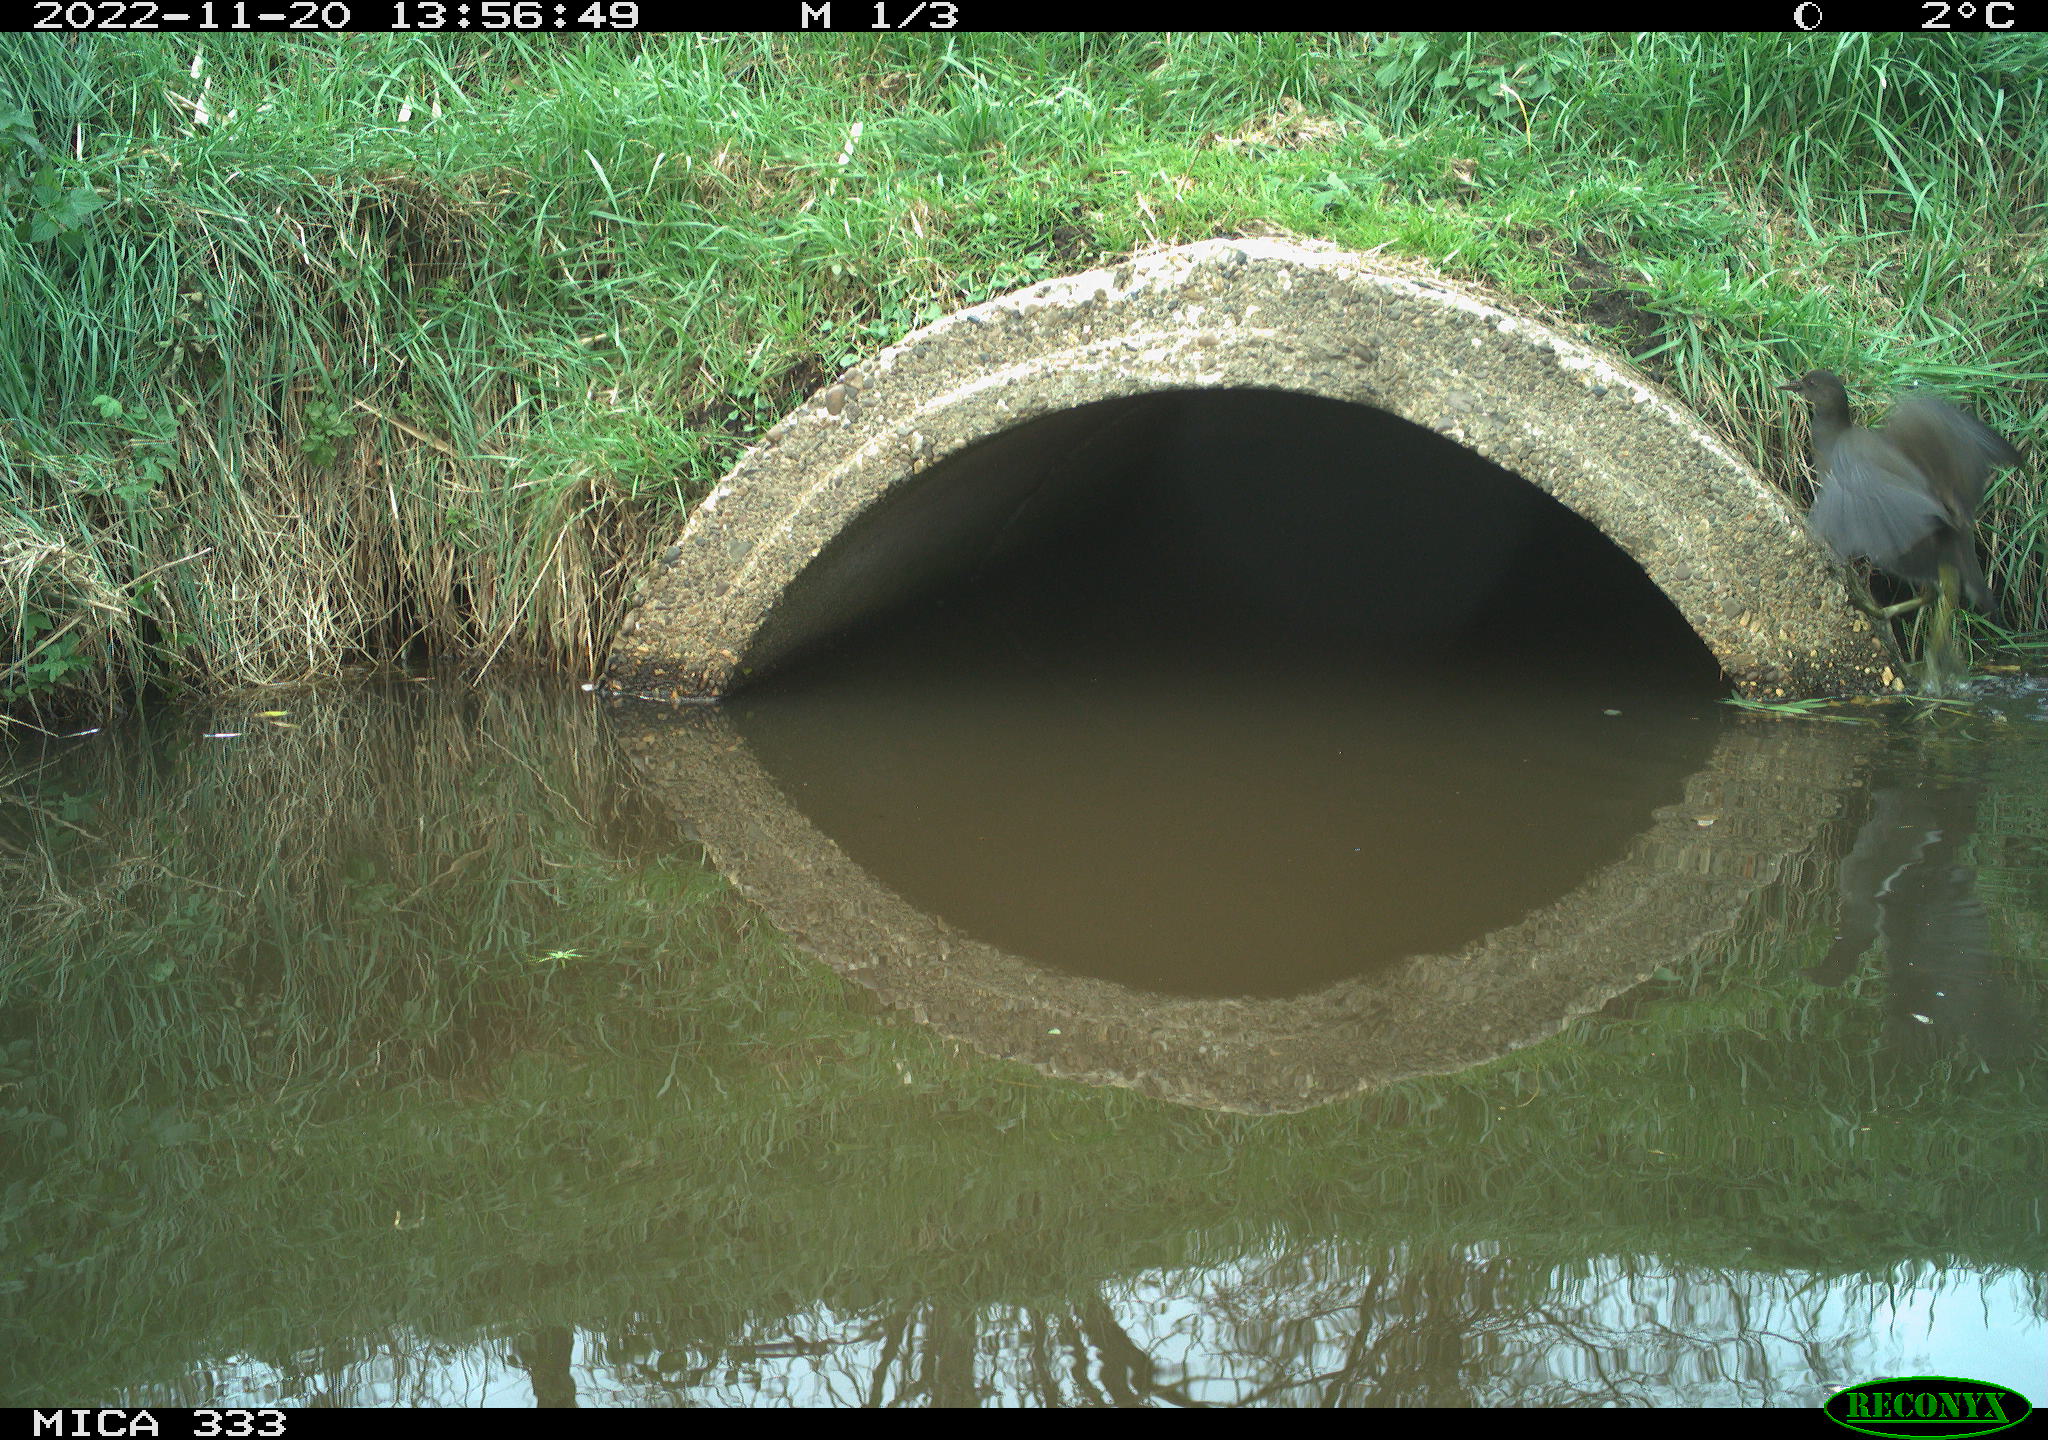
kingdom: Animalia
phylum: Chordata
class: Aves
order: Gruiformes
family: Rallidae
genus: Gallinula
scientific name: Gallinula chloropus
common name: Common moorhen
